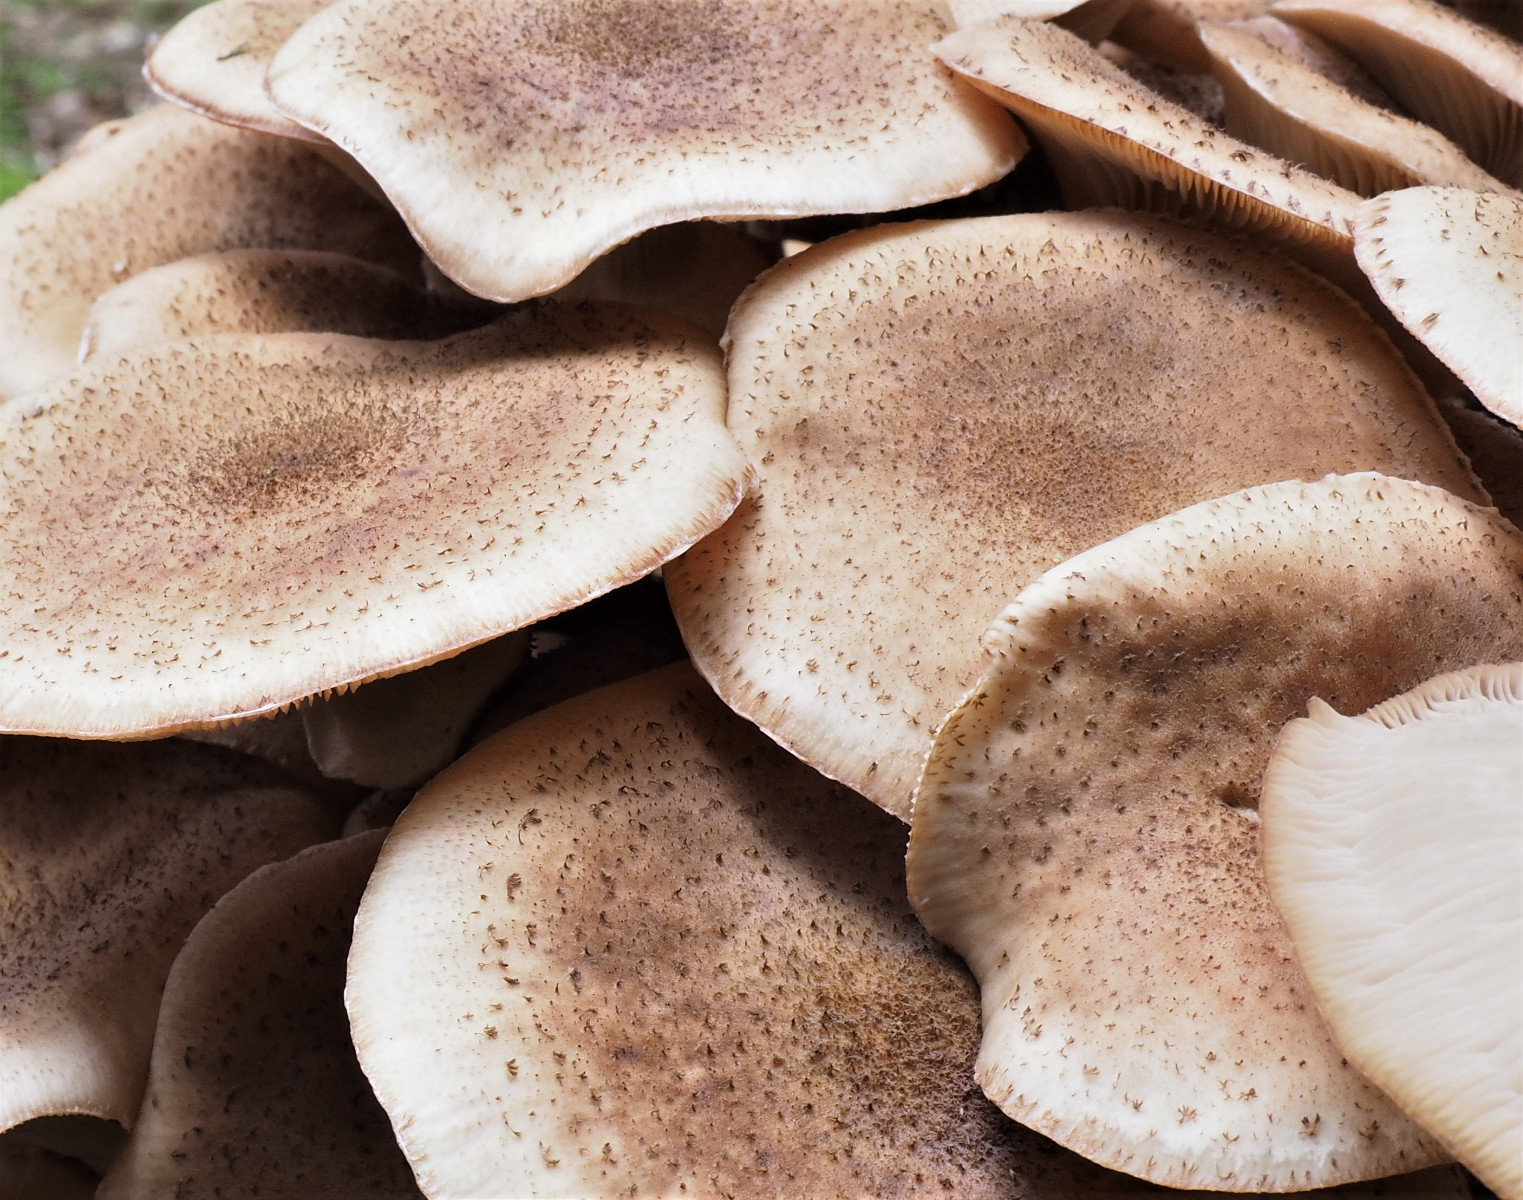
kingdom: Fungi
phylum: Basidiomycota
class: Agaricomycetes
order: Agaricales
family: Physalacriaceae
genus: Armillaria
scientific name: Armillaria ostoyae
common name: mørk honningsvamp
